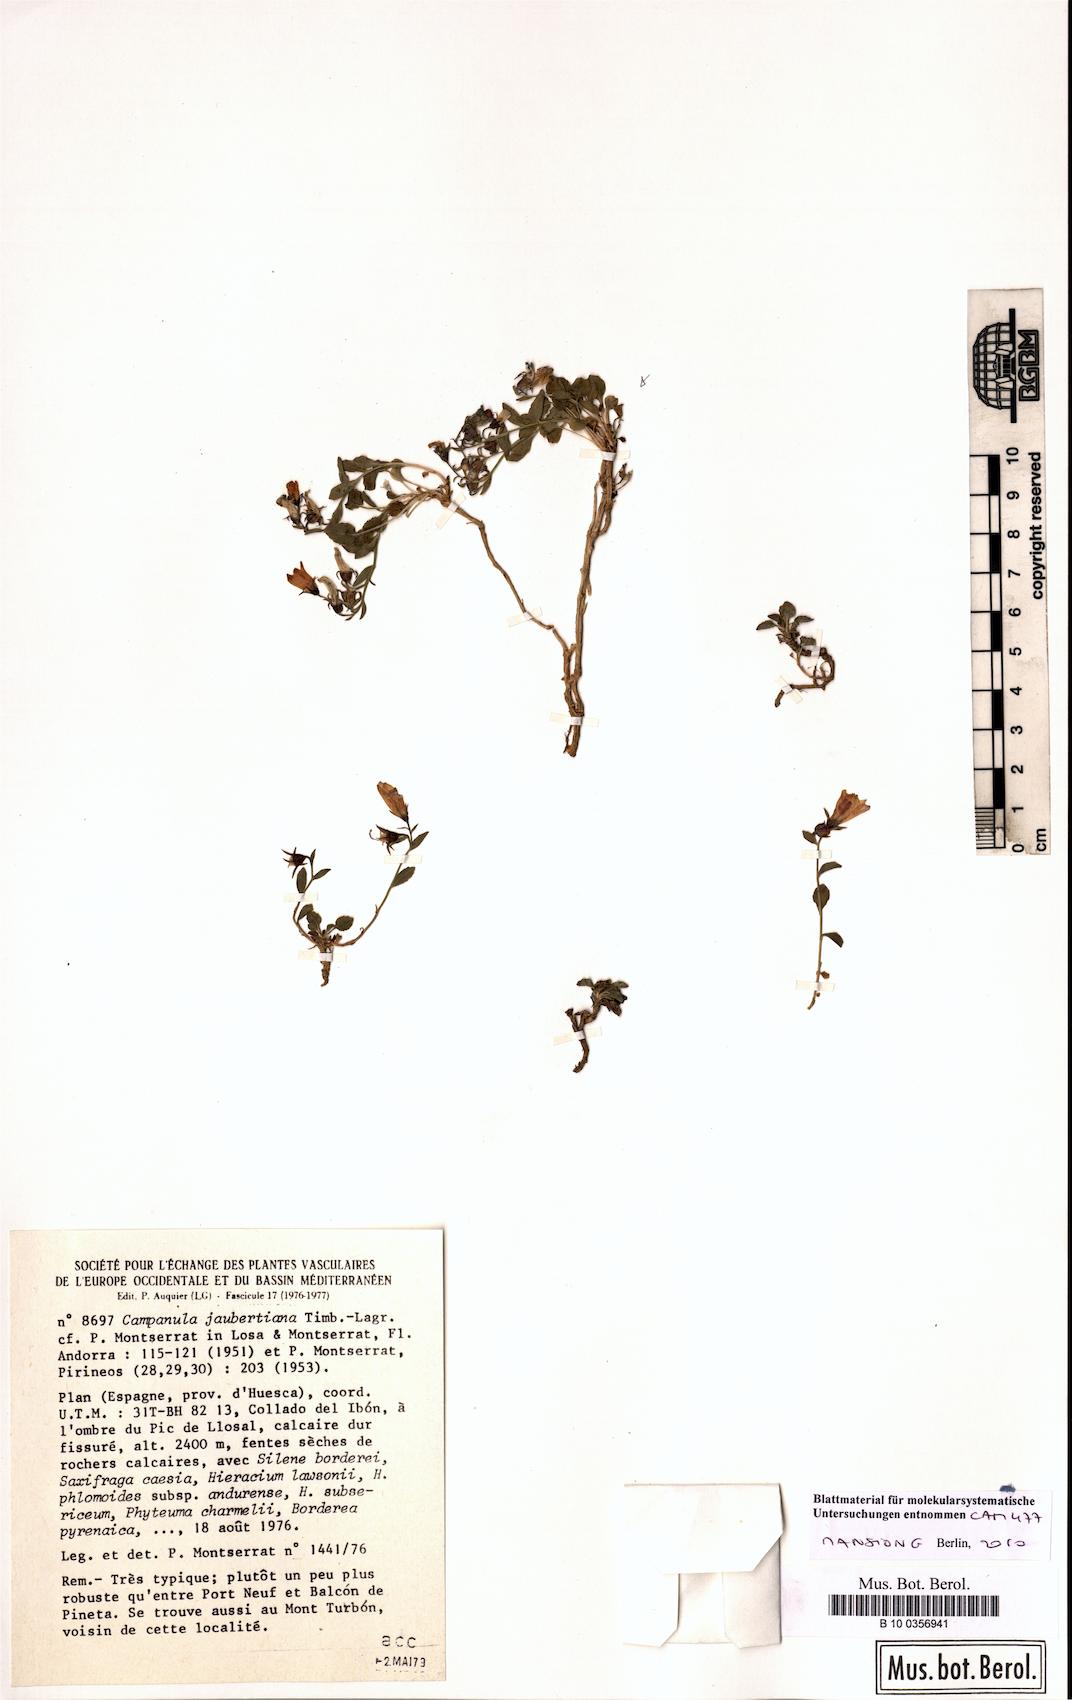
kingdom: Plantae
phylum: Tracheophyta
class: Magnoliopsida
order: Asterales
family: Campanulaceae
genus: Campanula
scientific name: Campanula jaubertiana
